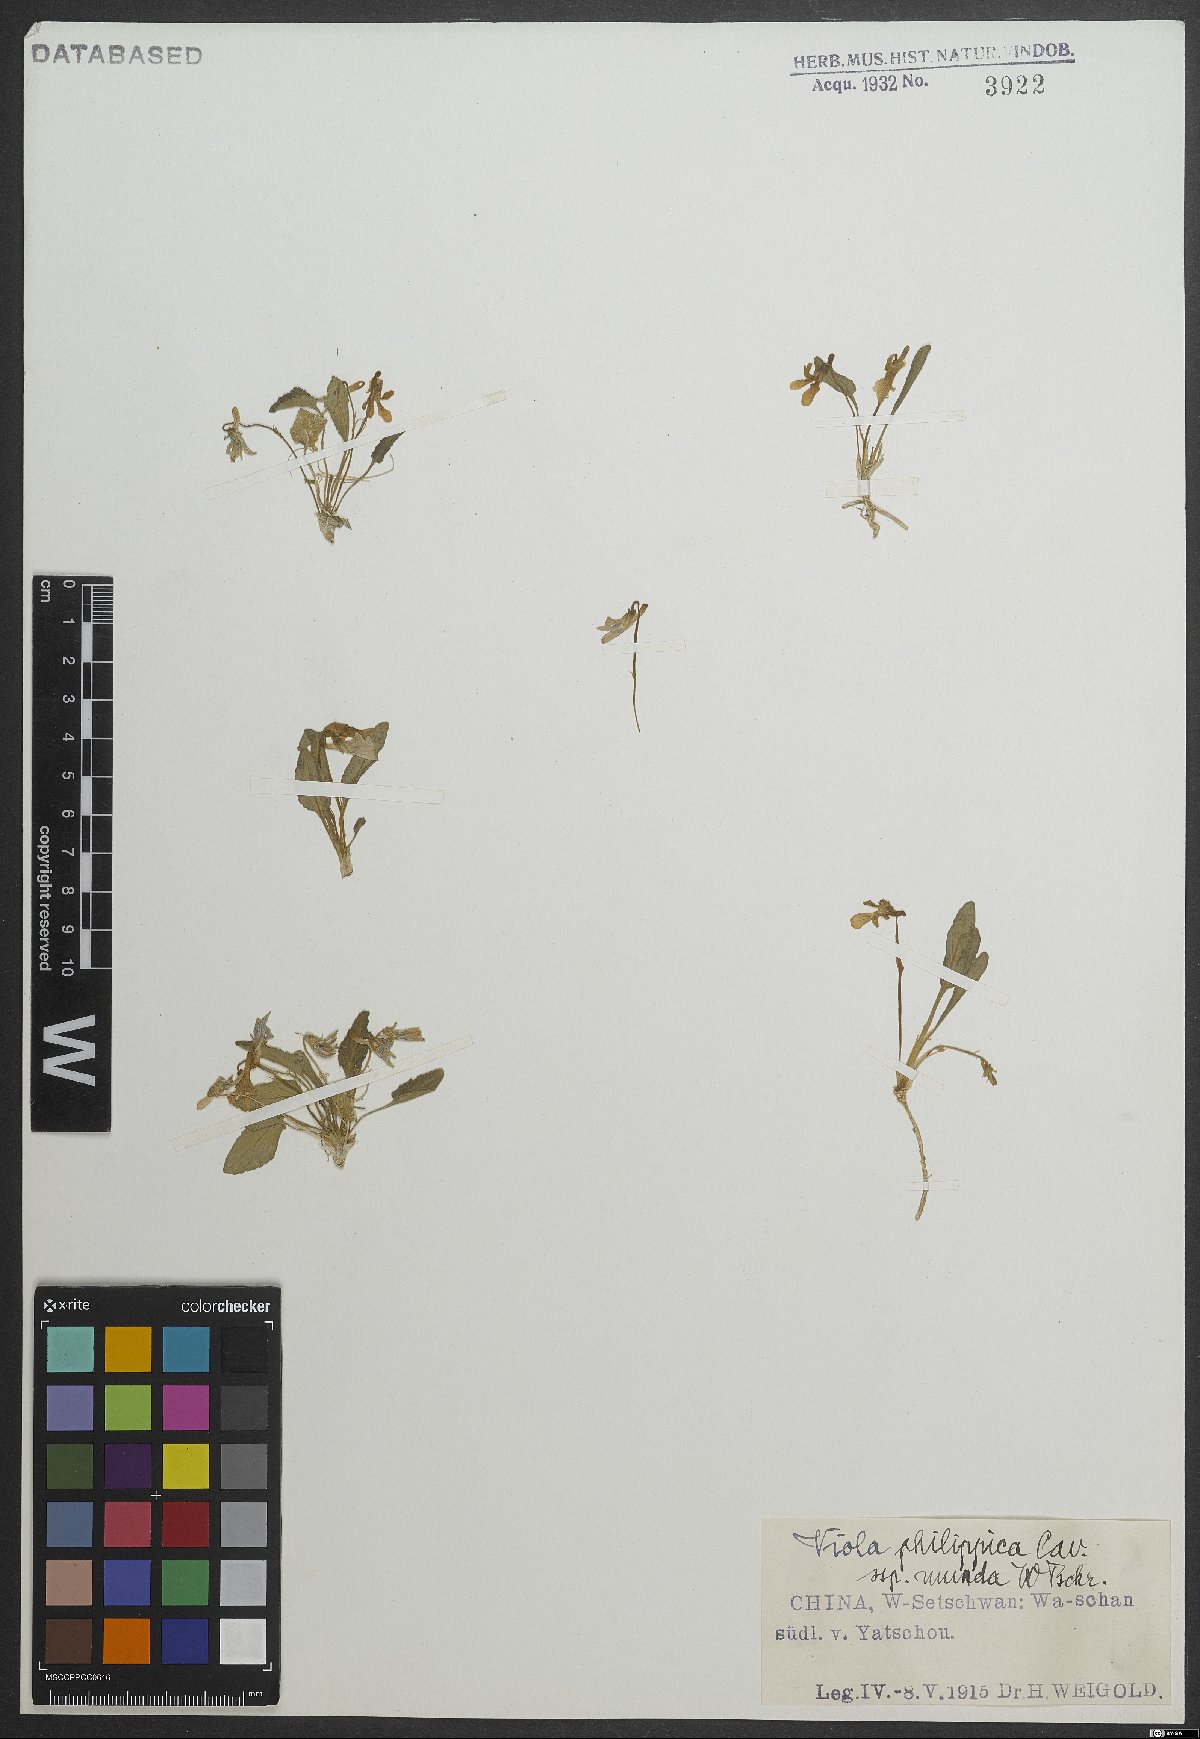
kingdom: Plantae
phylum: Tracheophyta
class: Magnoliopsida
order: Malpighiales
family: Violaceae
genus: Viola
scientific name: Viola philippica
